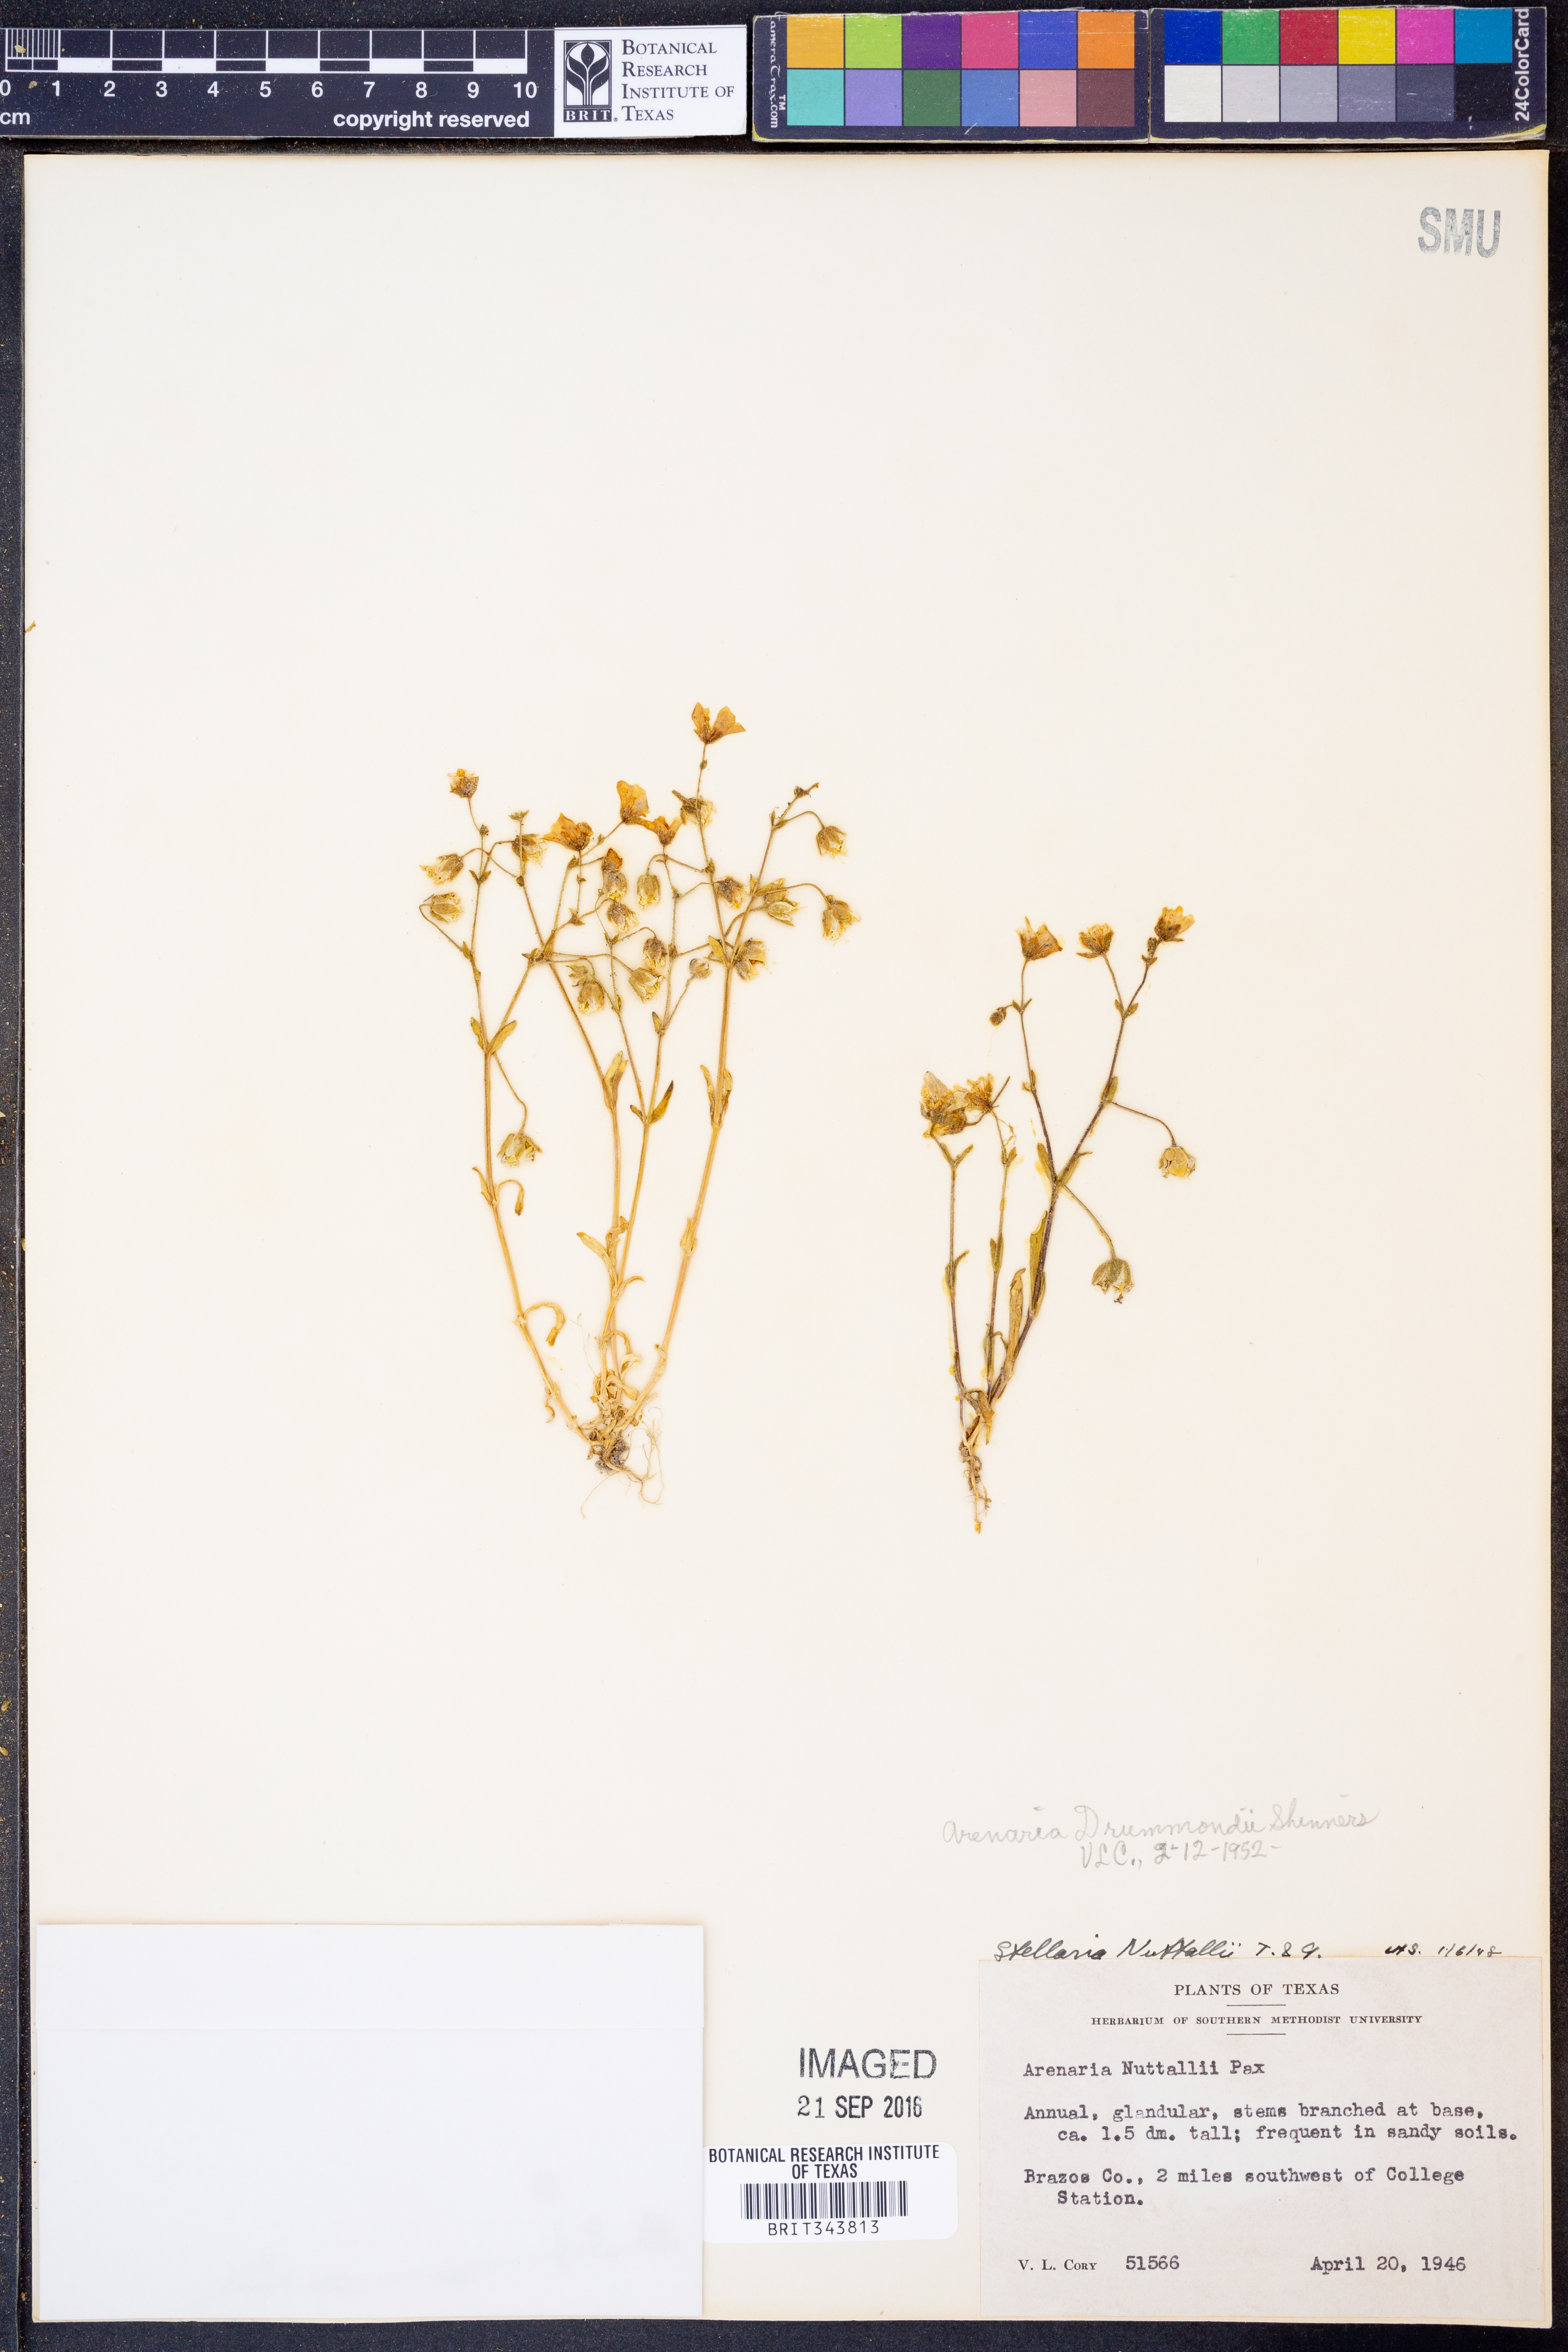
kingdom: Plantae
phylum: Tracheophyta
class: Magnoliopsida
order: Caryophyllales
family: Caryophyllaceae
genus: Geocarpon
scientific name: Geocarpon nuttallii
